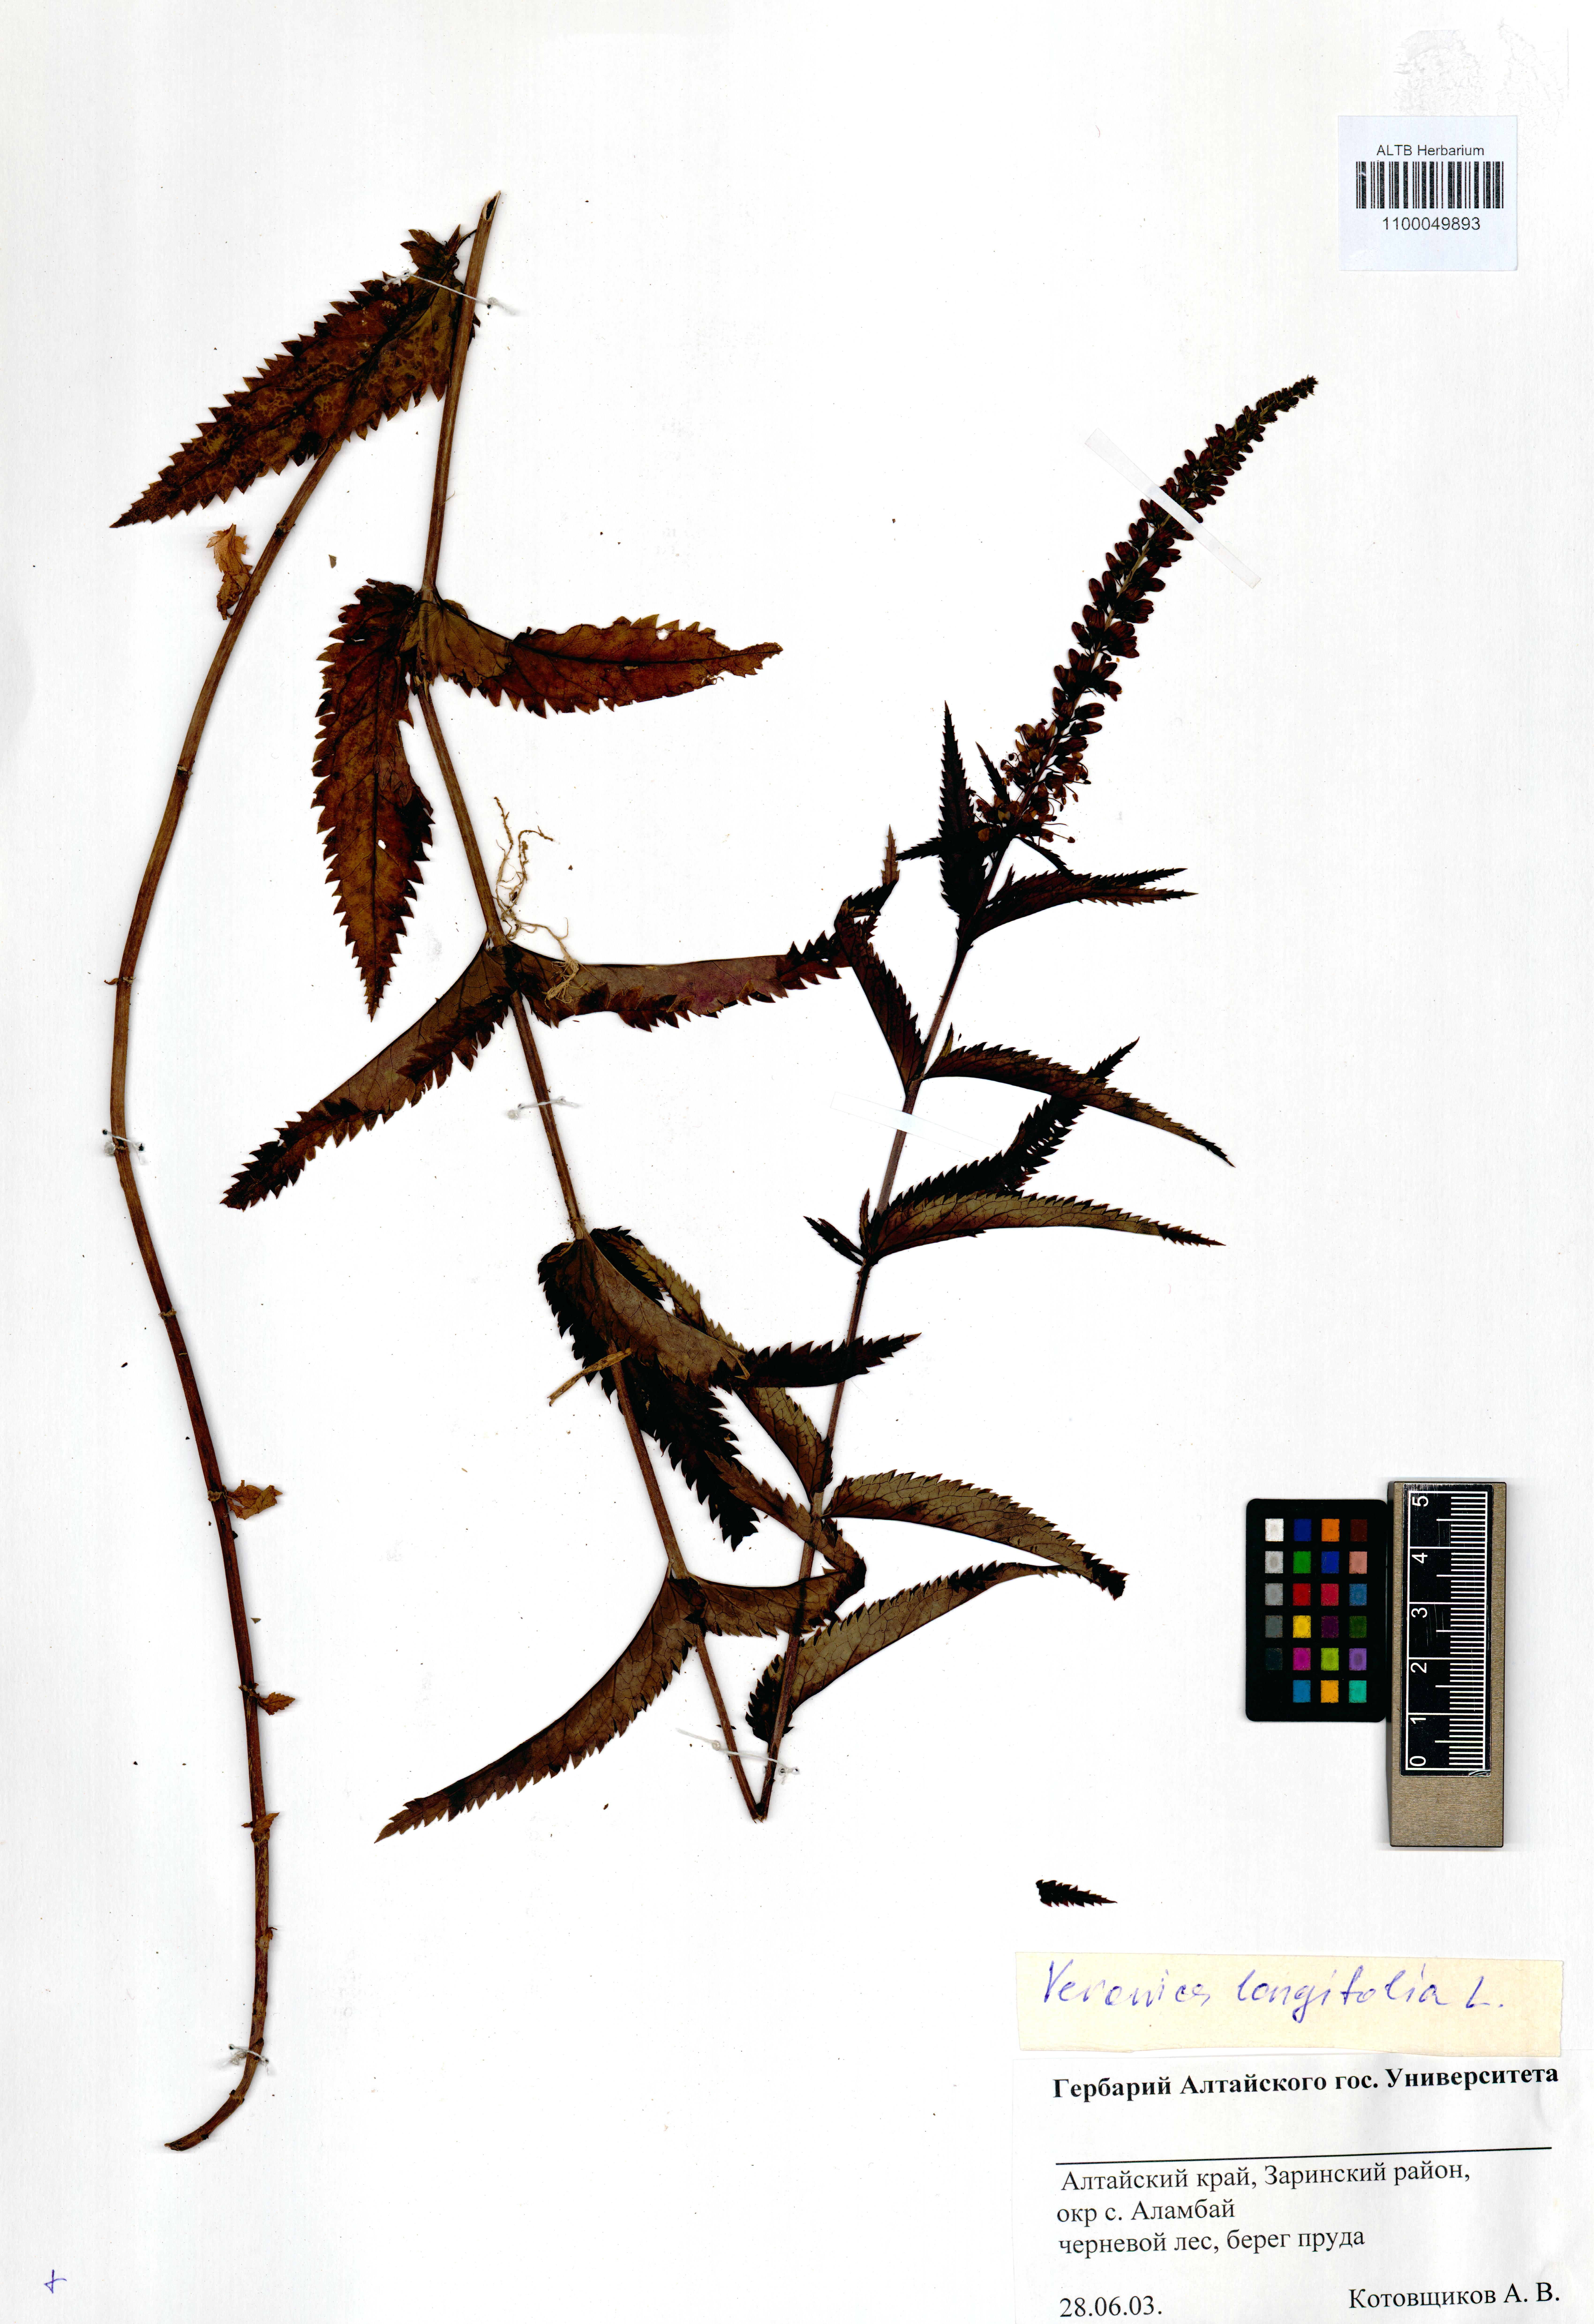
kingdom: Plantae
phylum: Tracheophyta
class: Magnoliopsida
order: Lamiales
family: Plantaginaceae
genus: Veronica
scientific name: Veronica longifolia
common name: Garden speedwell
